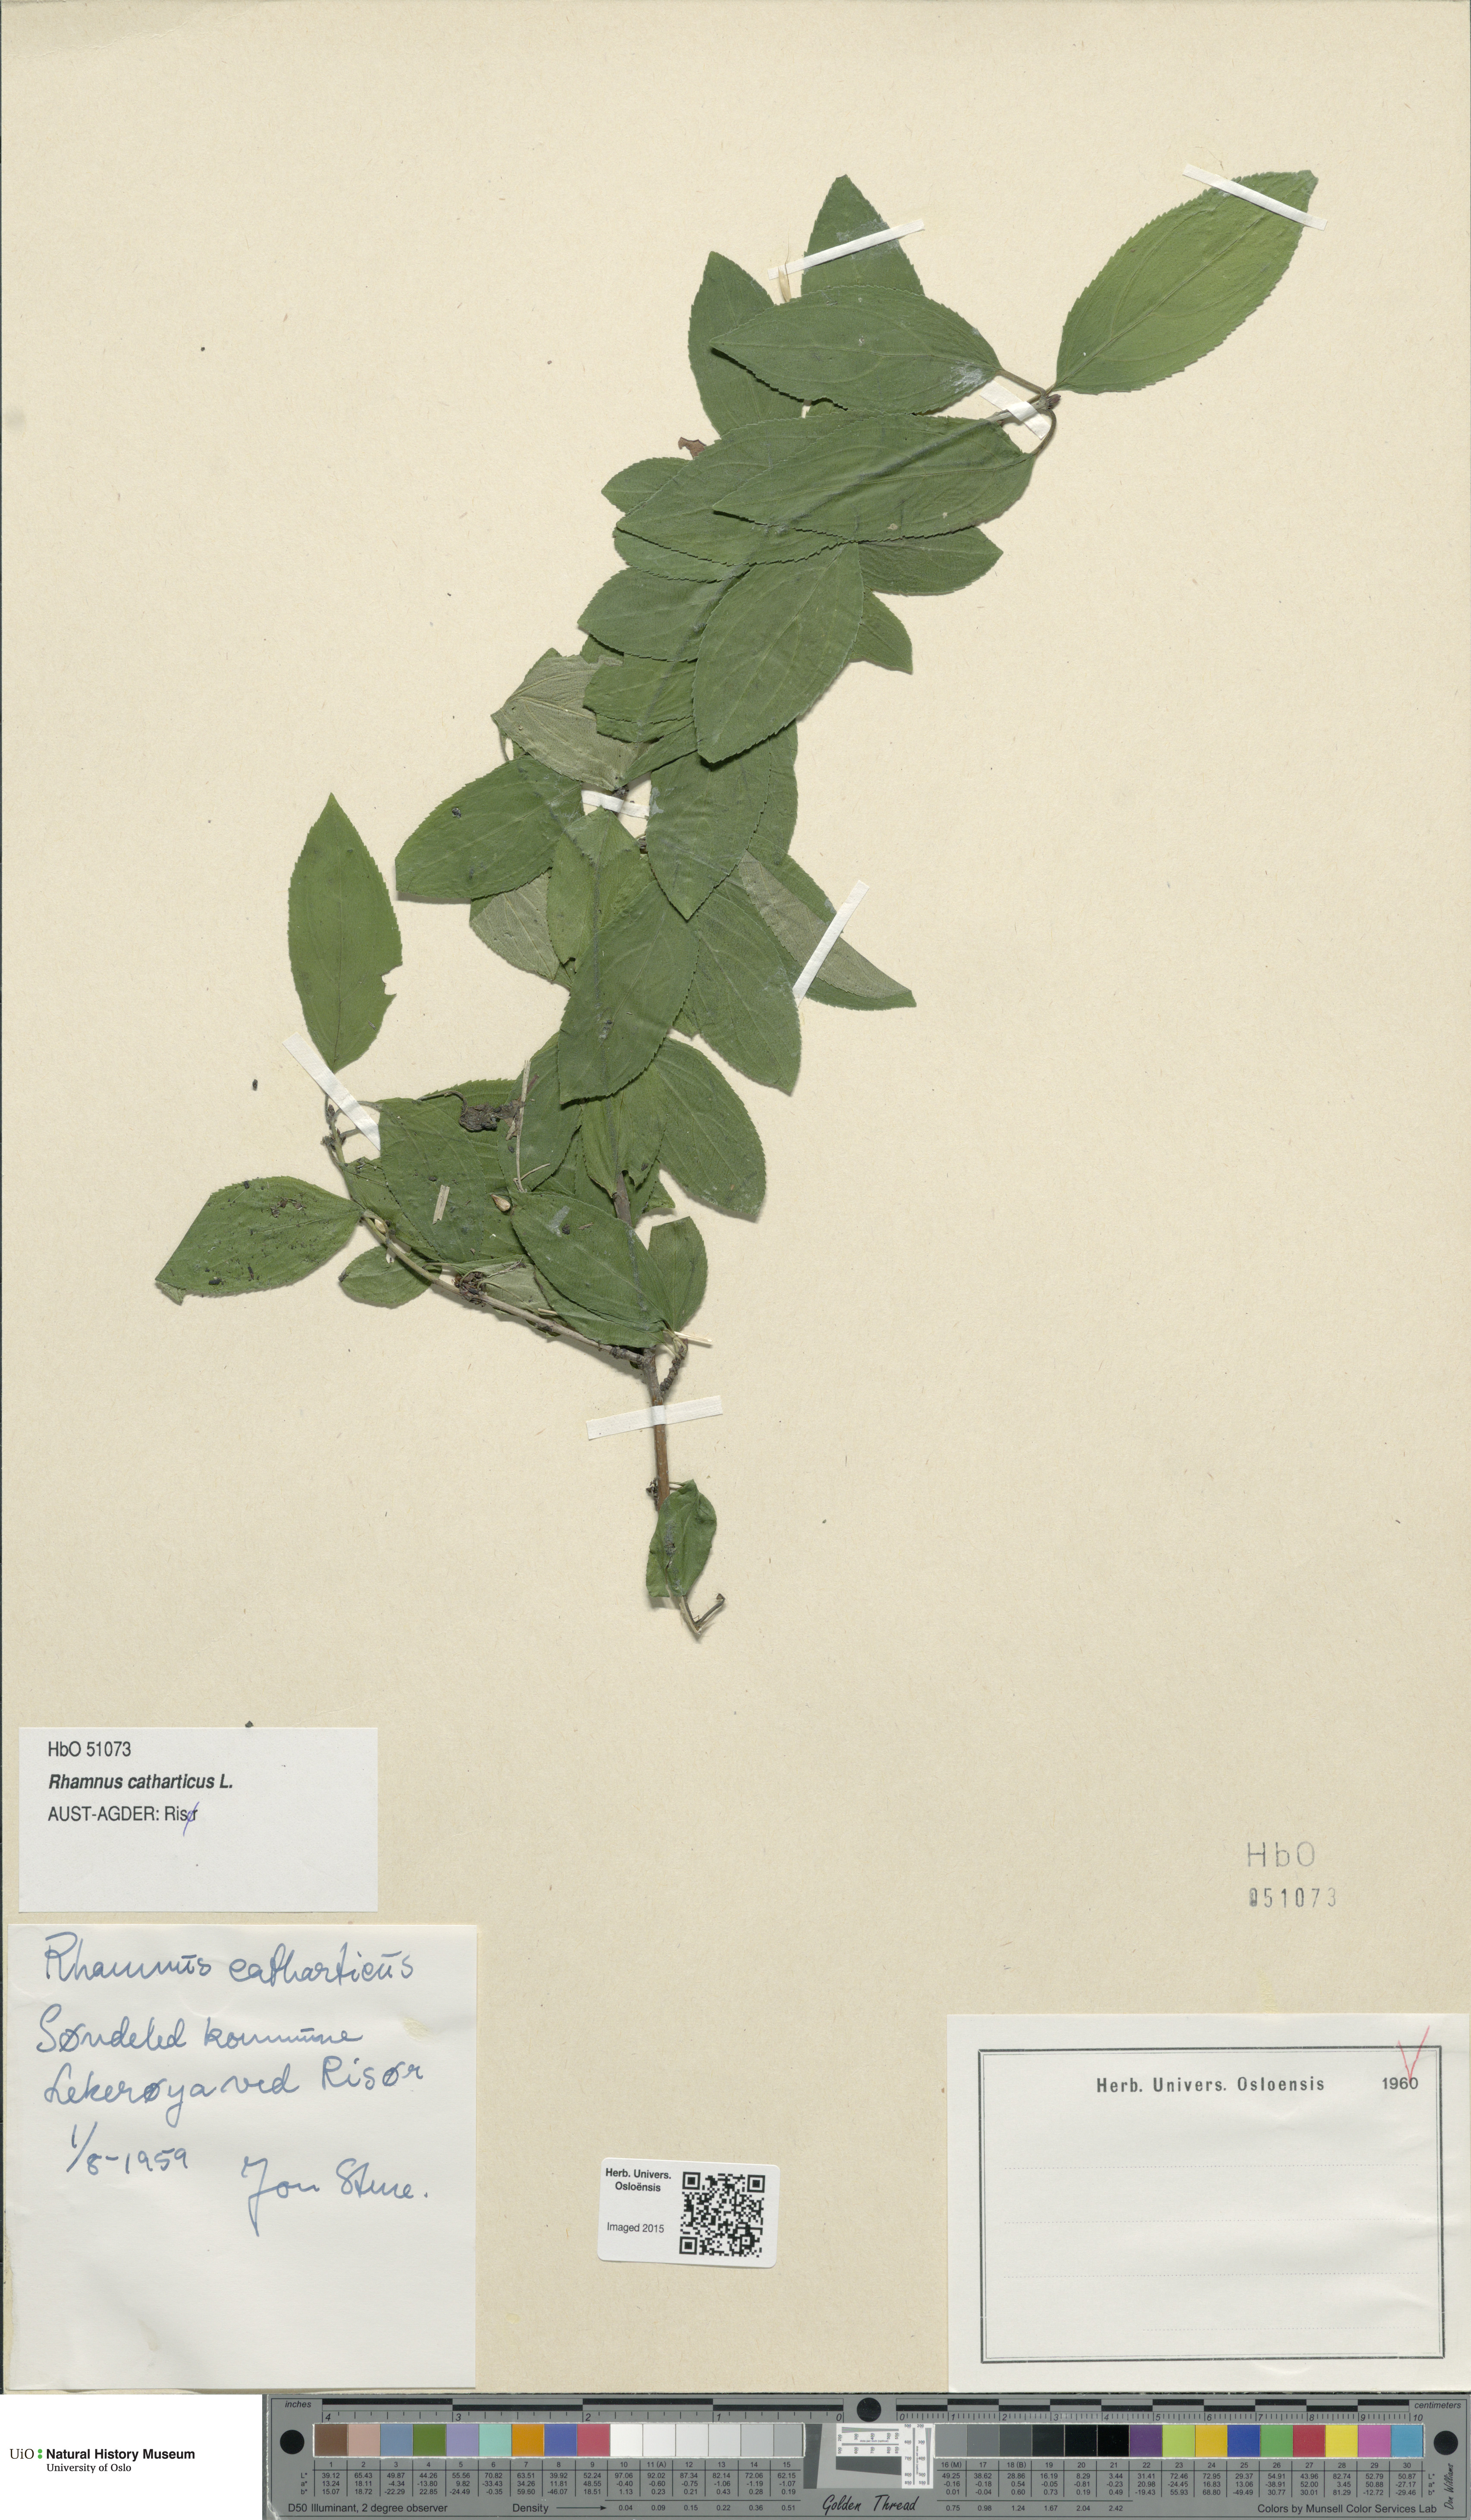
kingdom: Plantae
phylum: Tracheophyta
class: Magnoliopsida
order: Rosales
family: Rhamnaceae
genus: Rhamnus
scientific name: Rhamnus cathartica
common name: Common buckthorn
